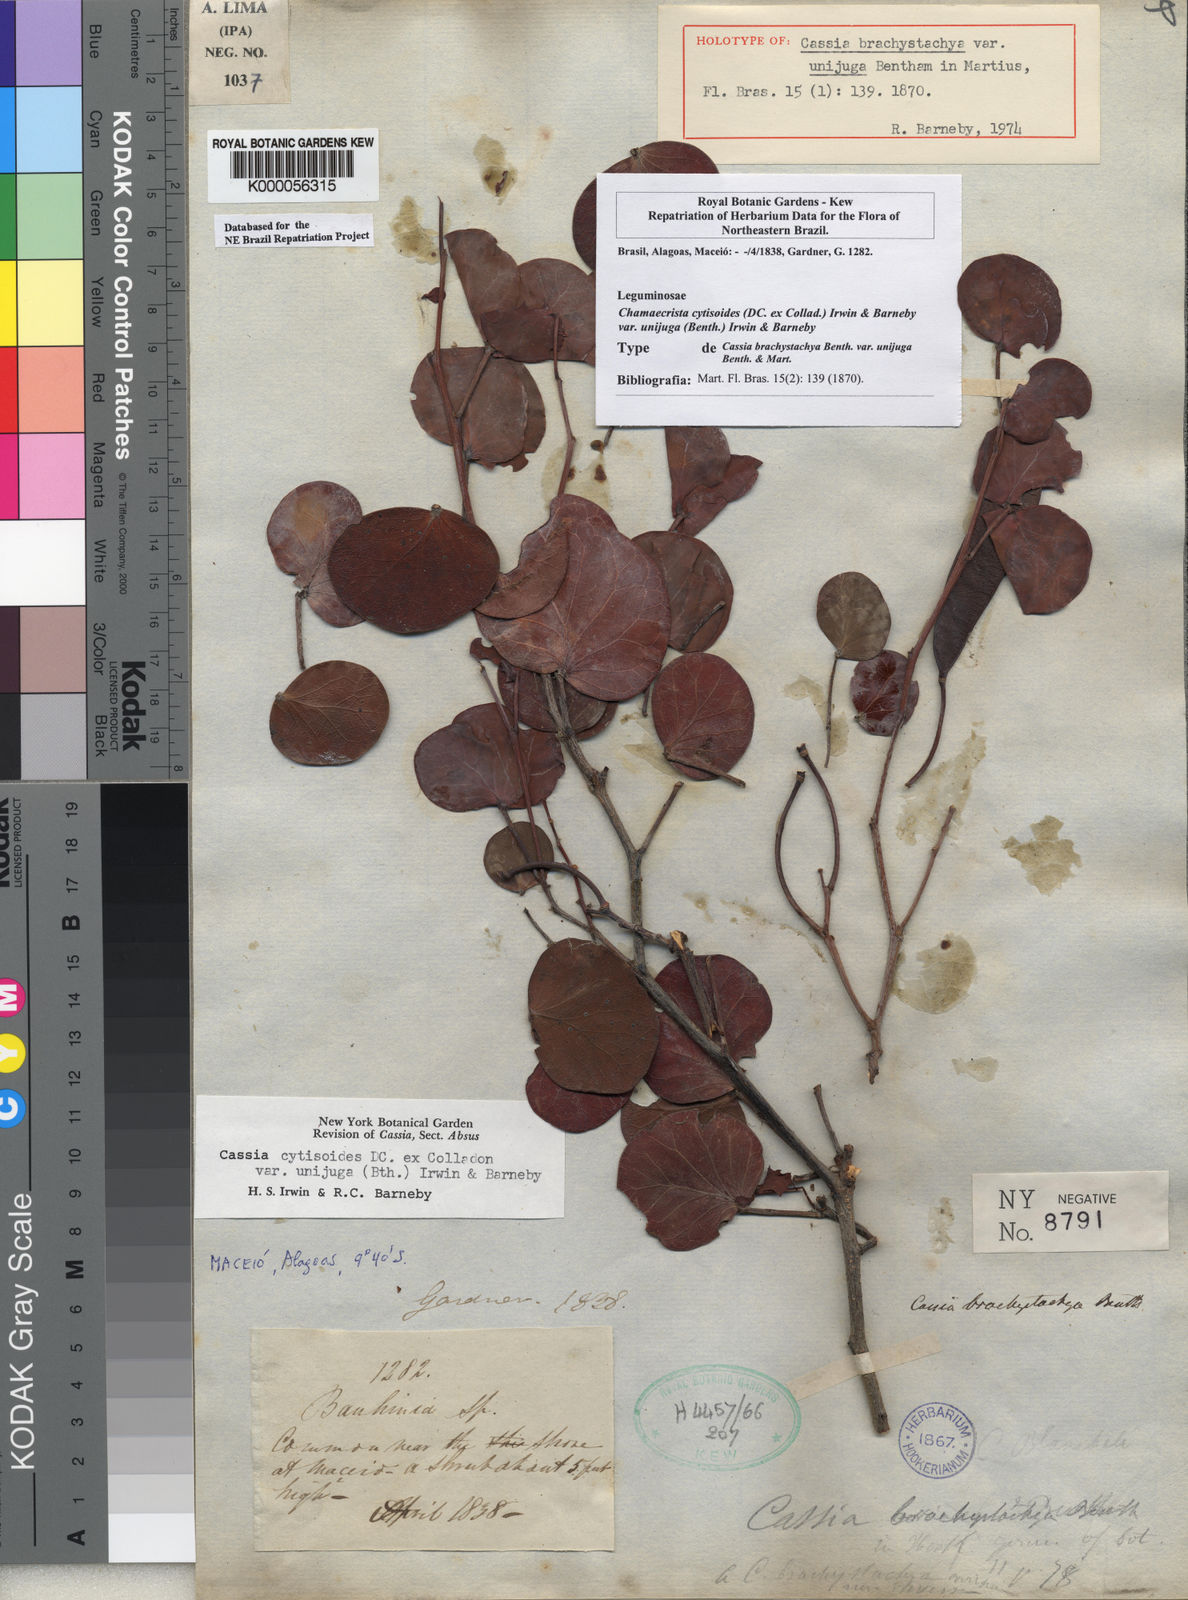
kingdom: Plantae
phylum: Tracheophyta
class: Magnoliopsida
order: Fabales
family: Fabaceae
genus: Chamaecrista
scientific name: Chamaecrista unijuga
